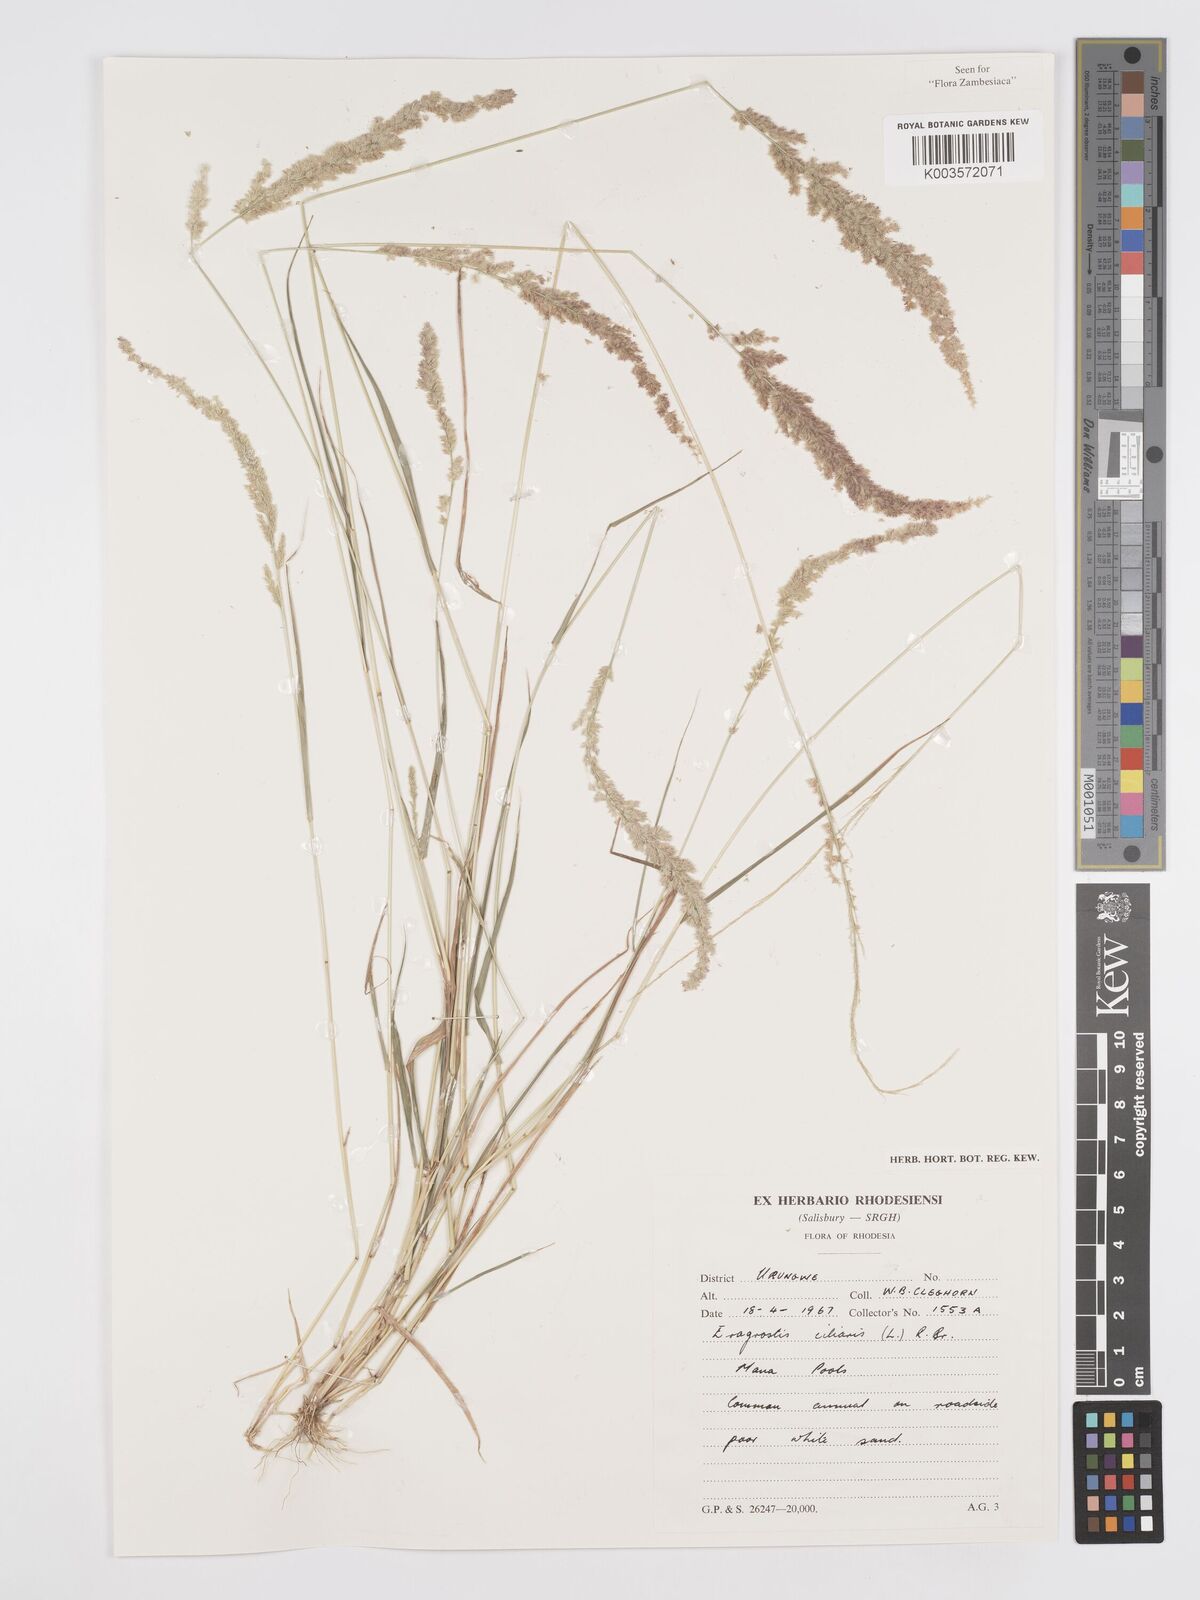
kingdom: Plantae
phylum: Tracheophyta
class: Liliopsida
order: Poales
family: Poaceae
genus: Eragrostis
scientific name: Eragrostis ciliaris
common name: Gophertail lovegrass
